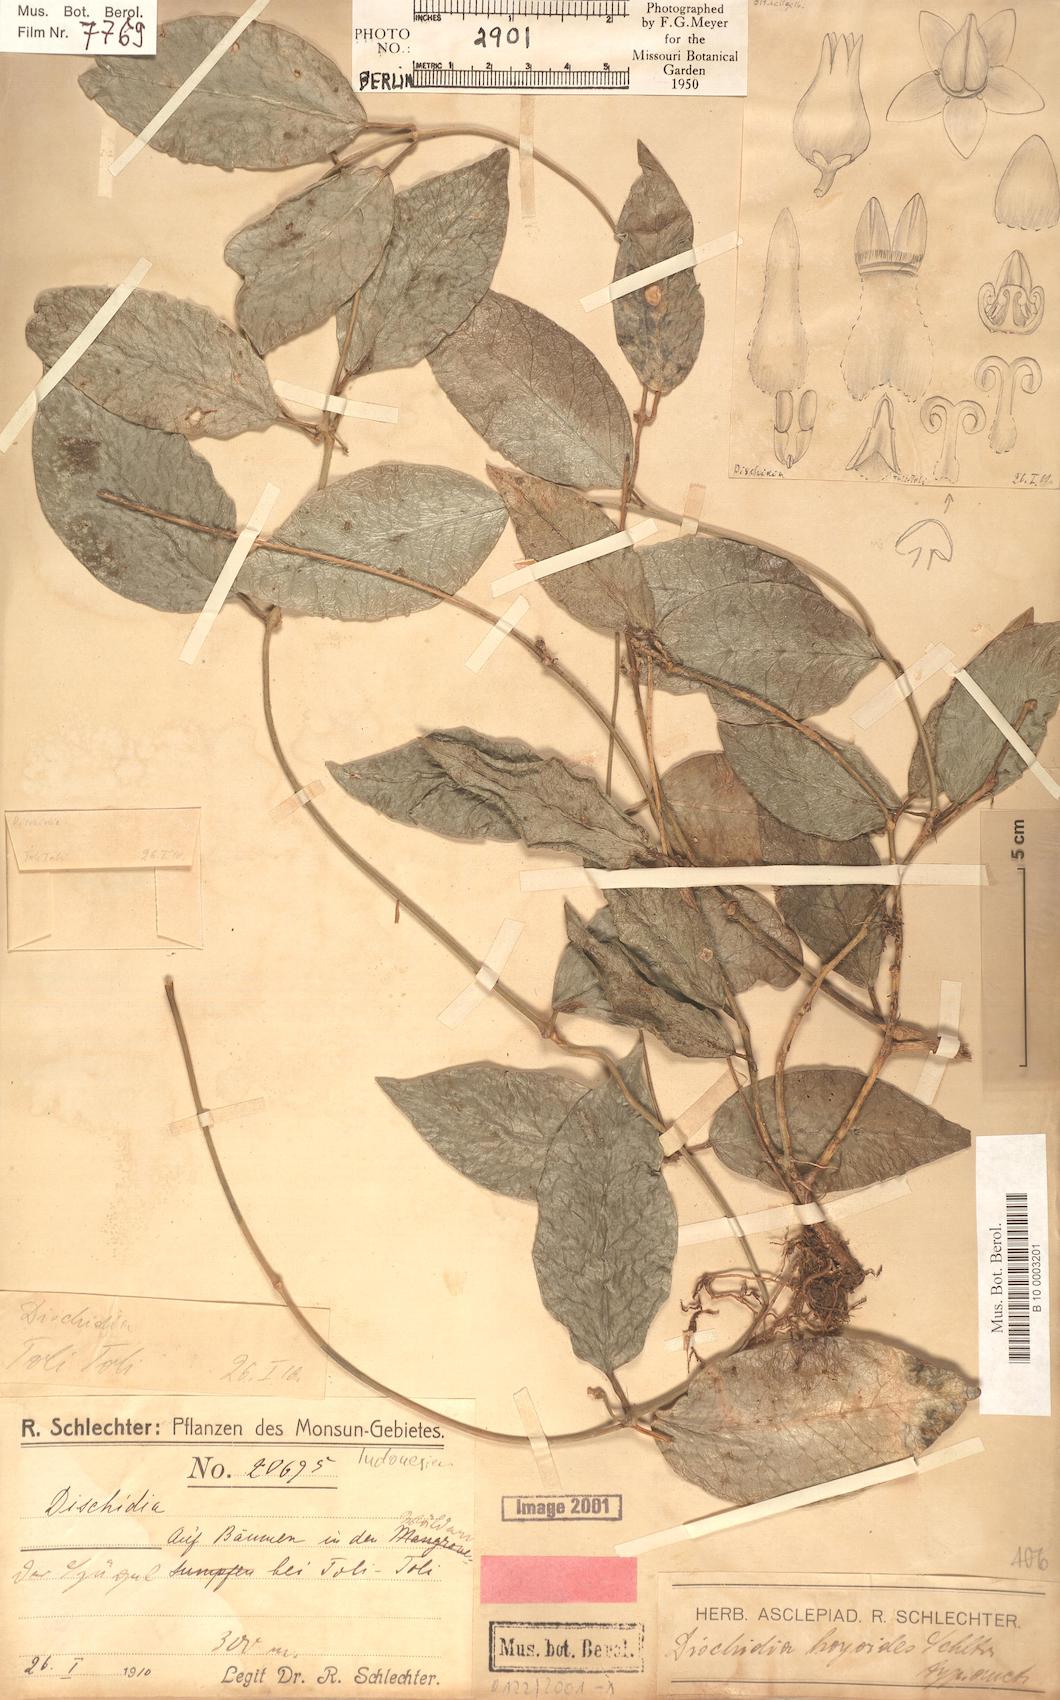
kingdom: Plantae
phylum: Tracheophyta
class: Magnoliopsida
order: Gentianales
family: Apocynaceae
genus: Dischidia
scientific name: Dischidia acutifolia
